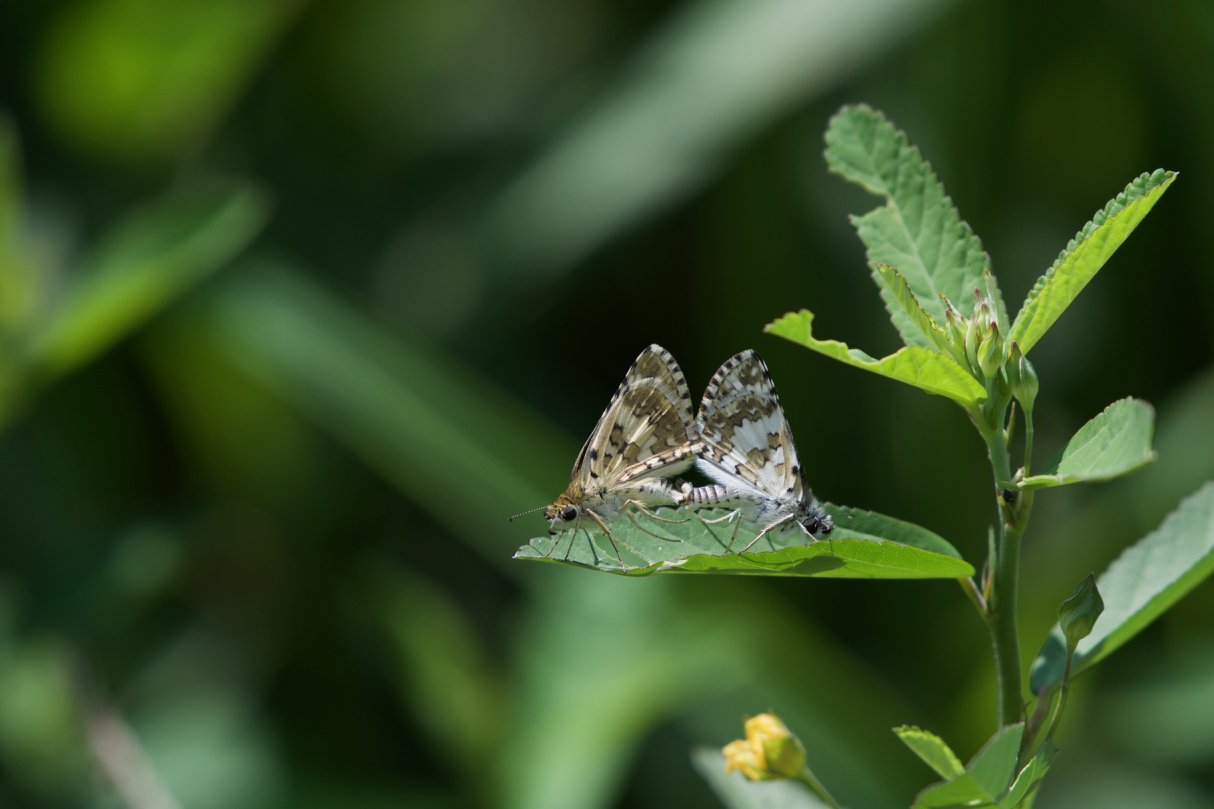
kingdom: Animalia
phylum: Arthropoda
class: Insecta
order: Lepidoptera
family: Hesperiidae
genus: Pyrgus
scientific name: Pyrgus communis
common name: White Checkered-Skipper
